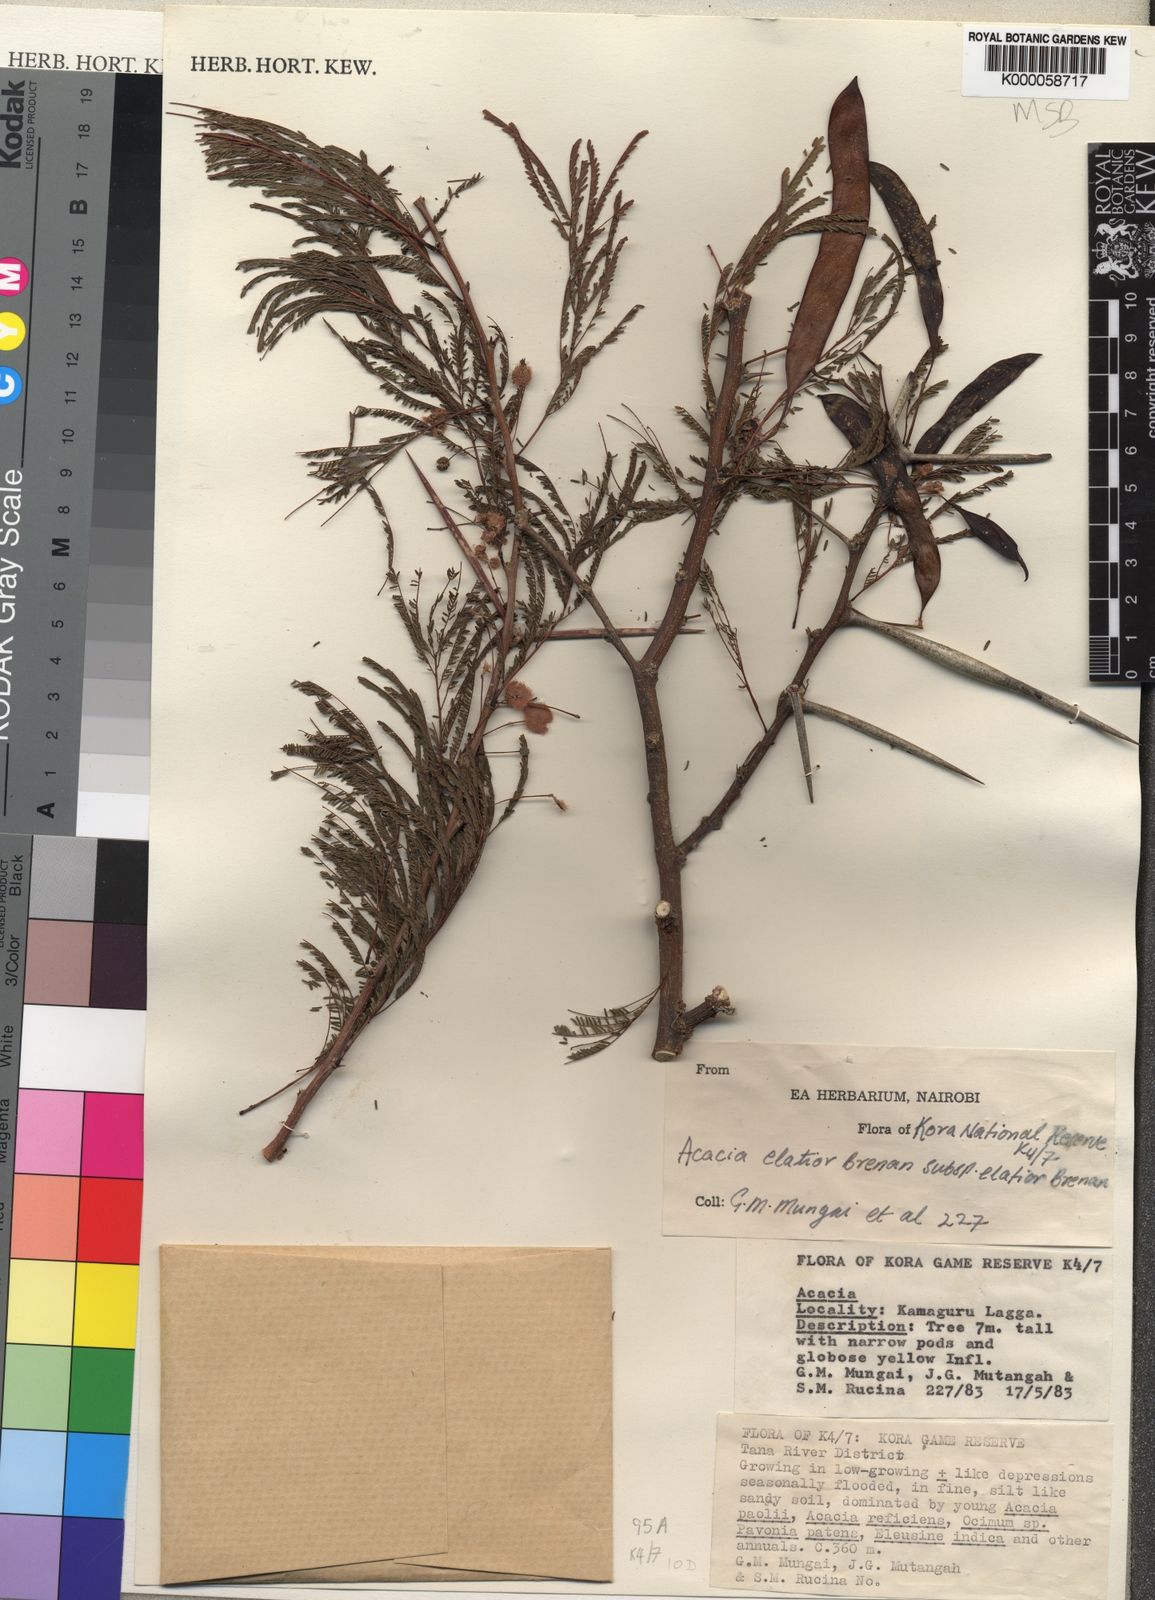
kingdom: Plantae
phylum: Tracheophyta
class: Magnoliopsida
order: Fabales
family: Fabaceae
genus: Vachellia
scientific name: Vachellia elatior
